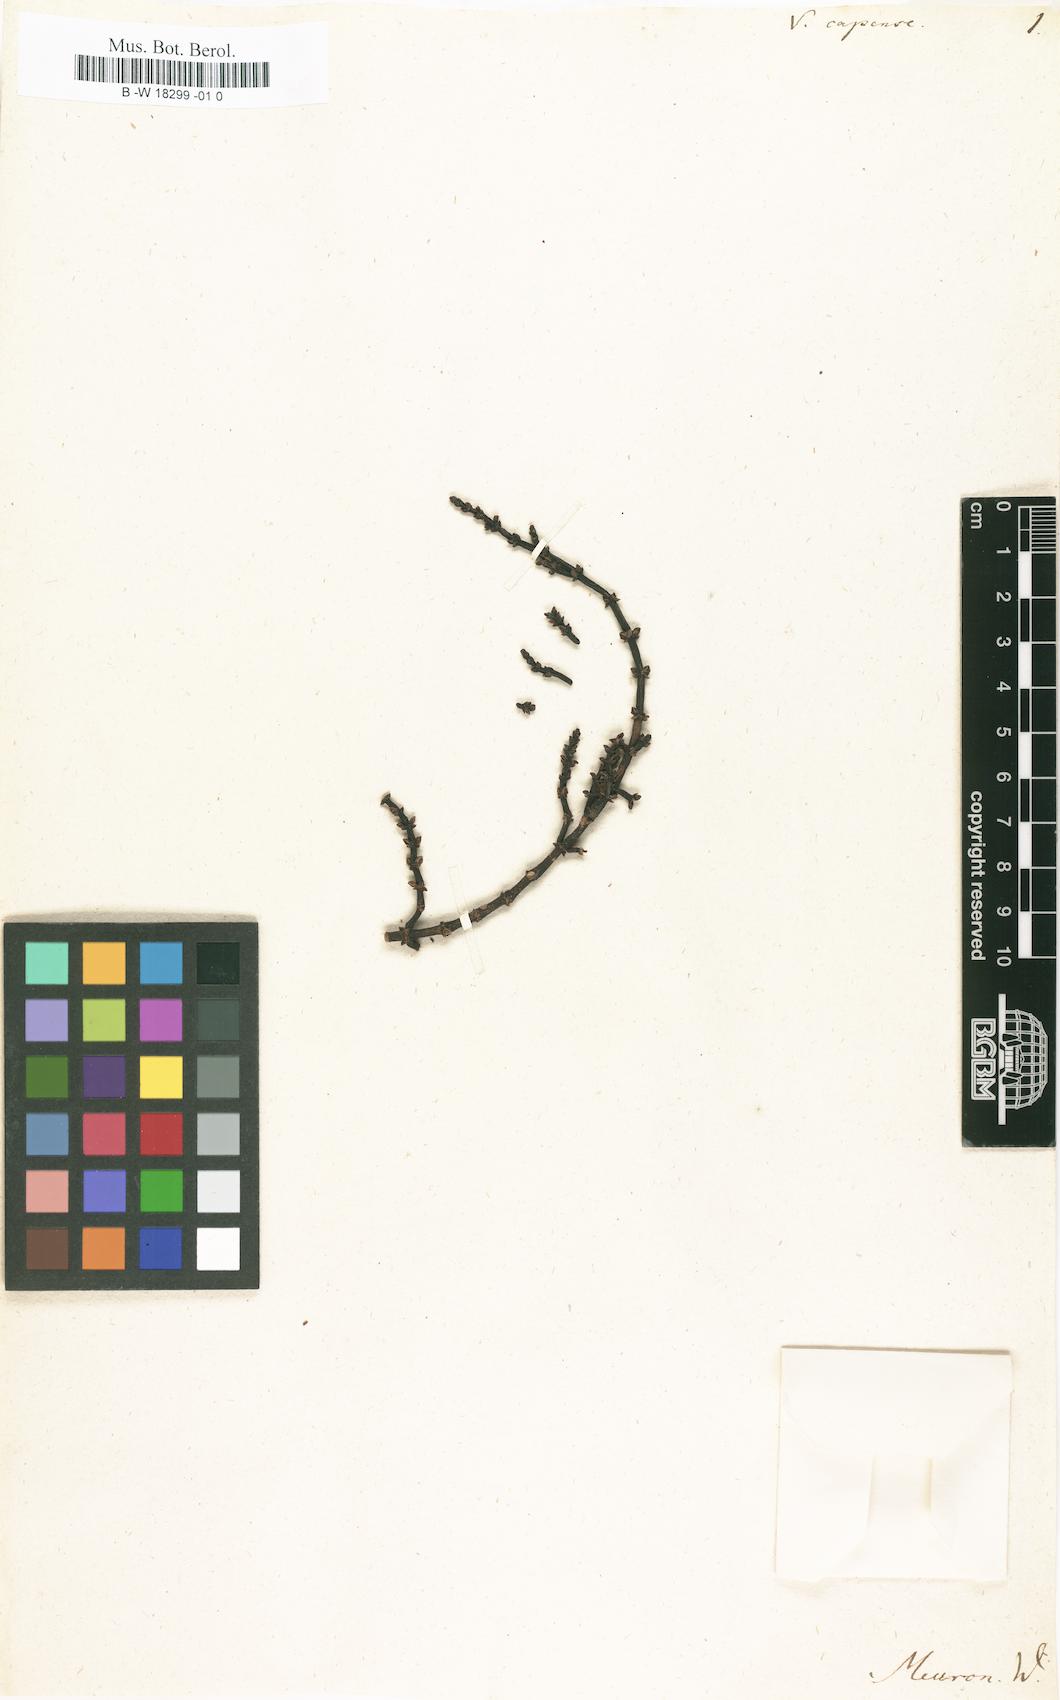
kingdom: Plantae
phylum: Tracheophyta
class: Magnoliopsida
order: Santalales
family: Viscaceae
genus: Viscum
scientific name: Viscum capense
